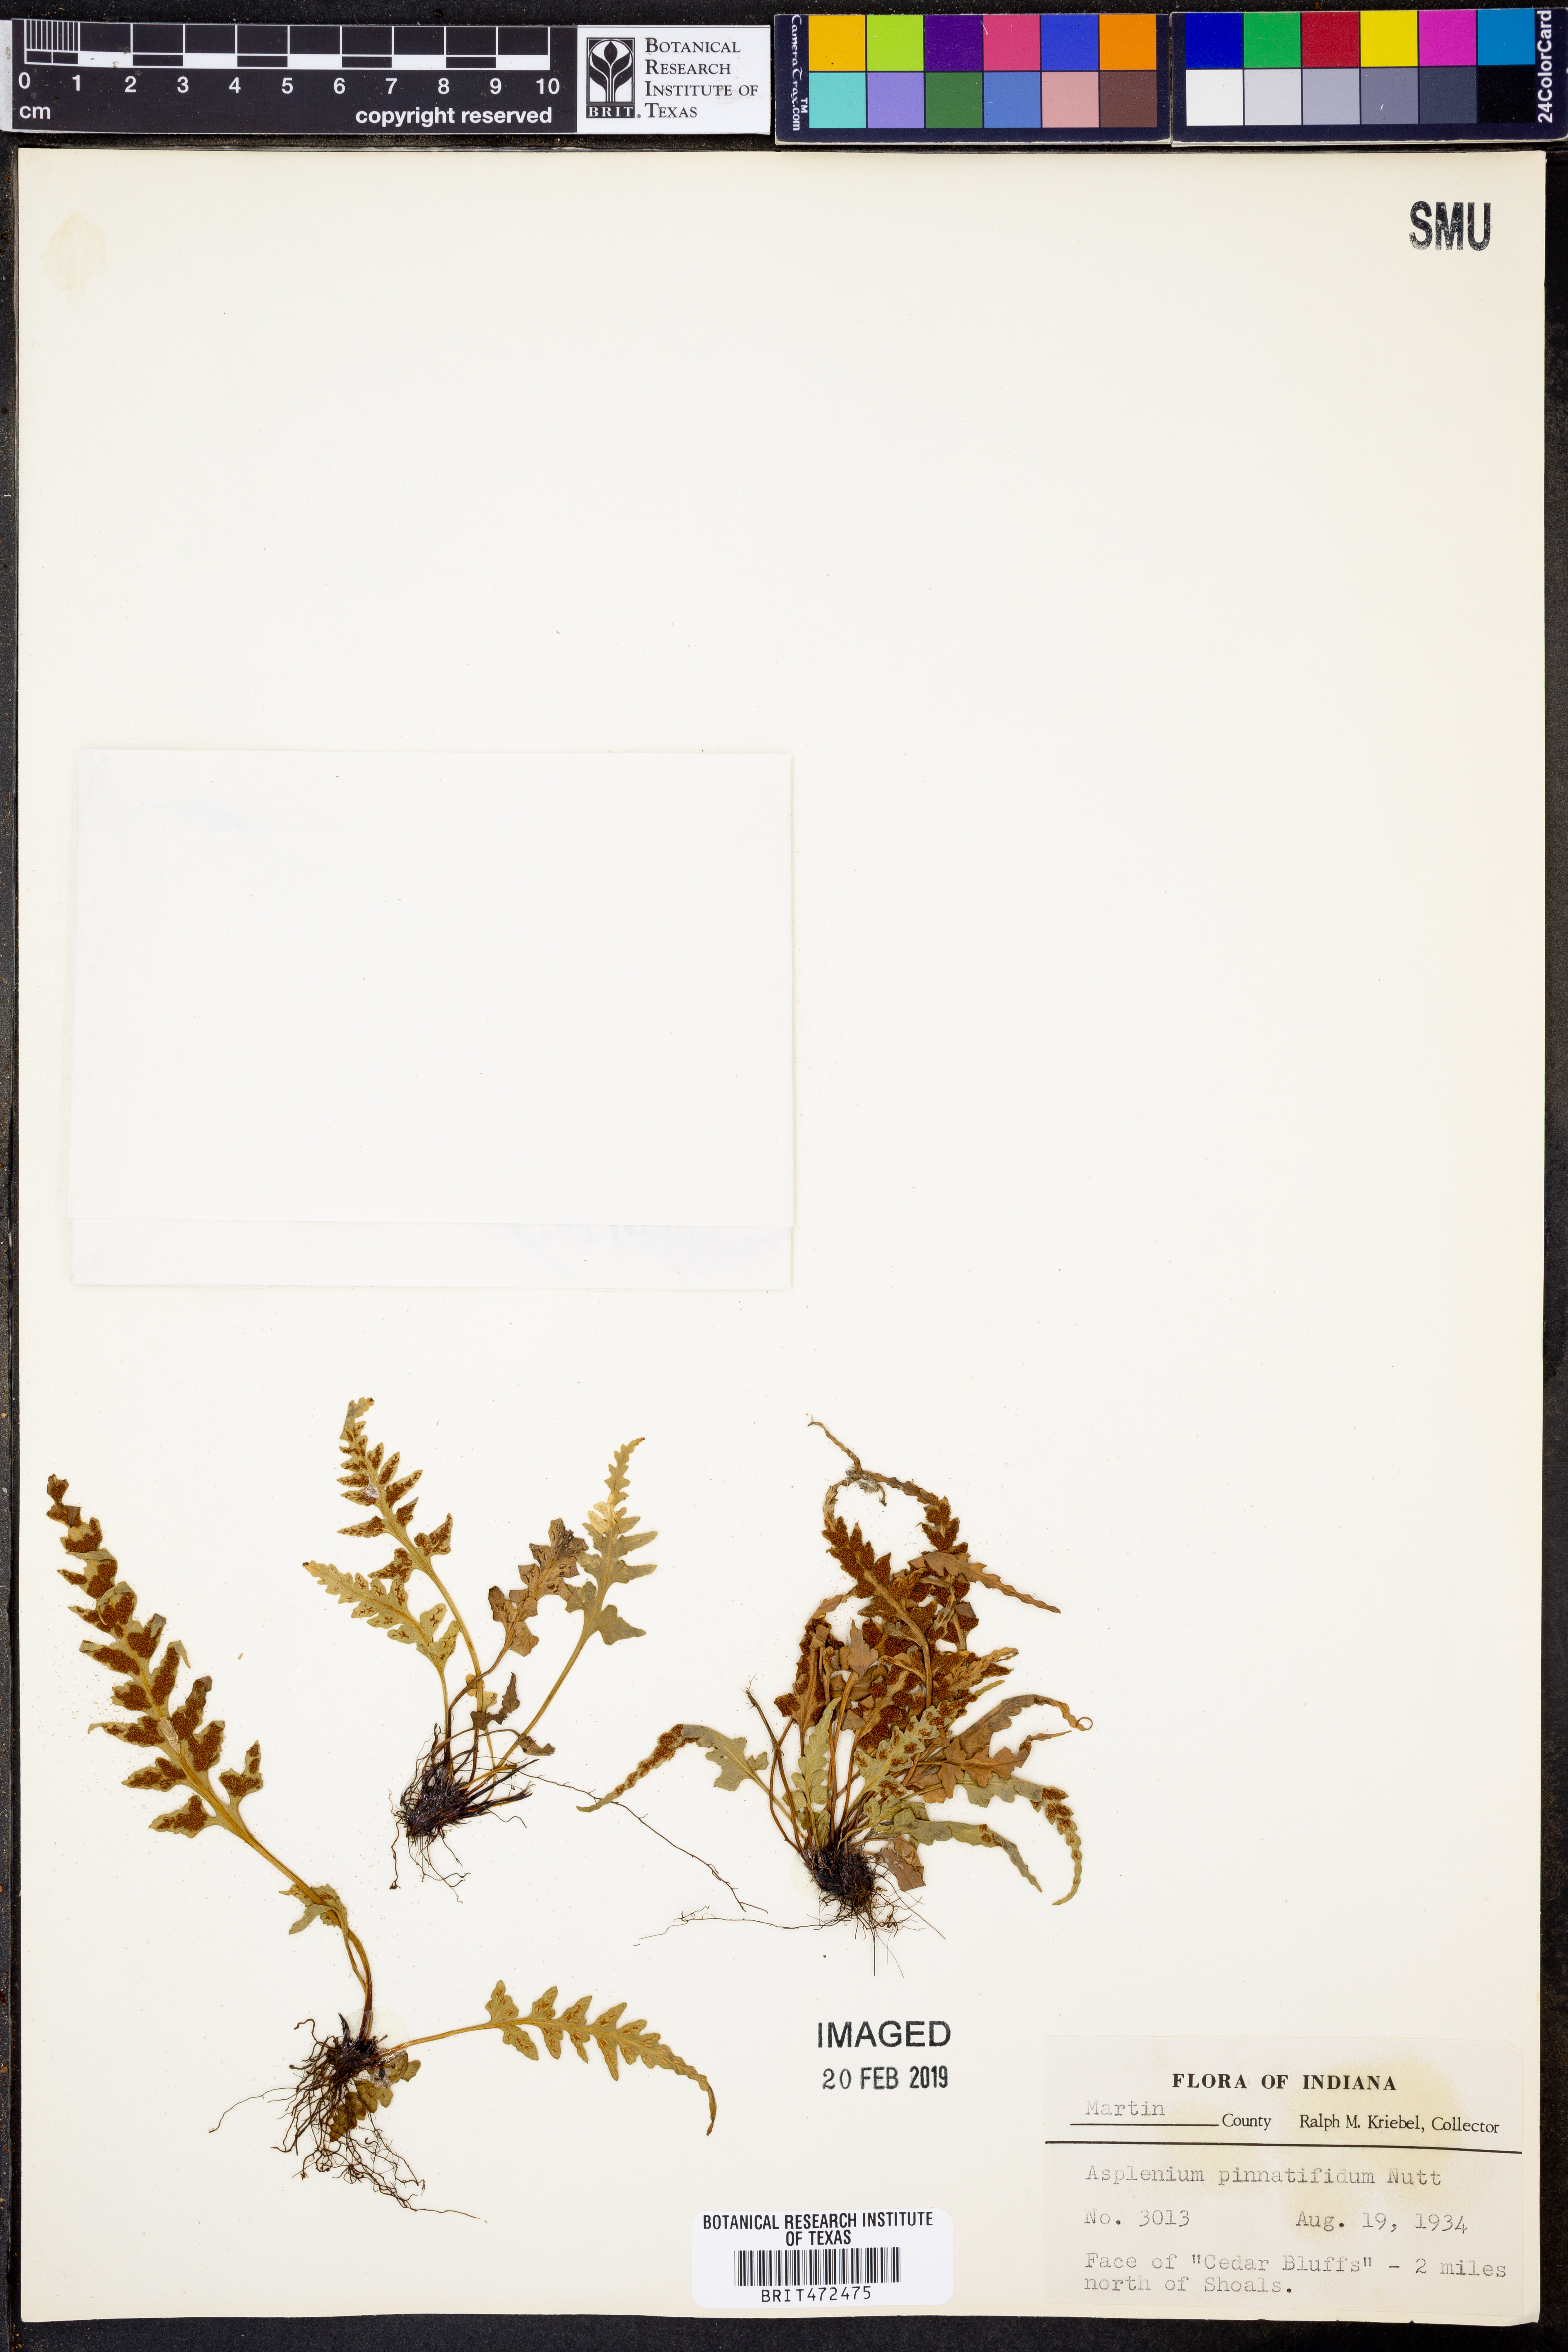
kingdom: Plantae
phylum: Tracheophyta
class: Polypodiopsida
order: Polypodiales
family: Aspleniaceae
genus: Asplenium
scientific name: Asplenium pinnatifidum
